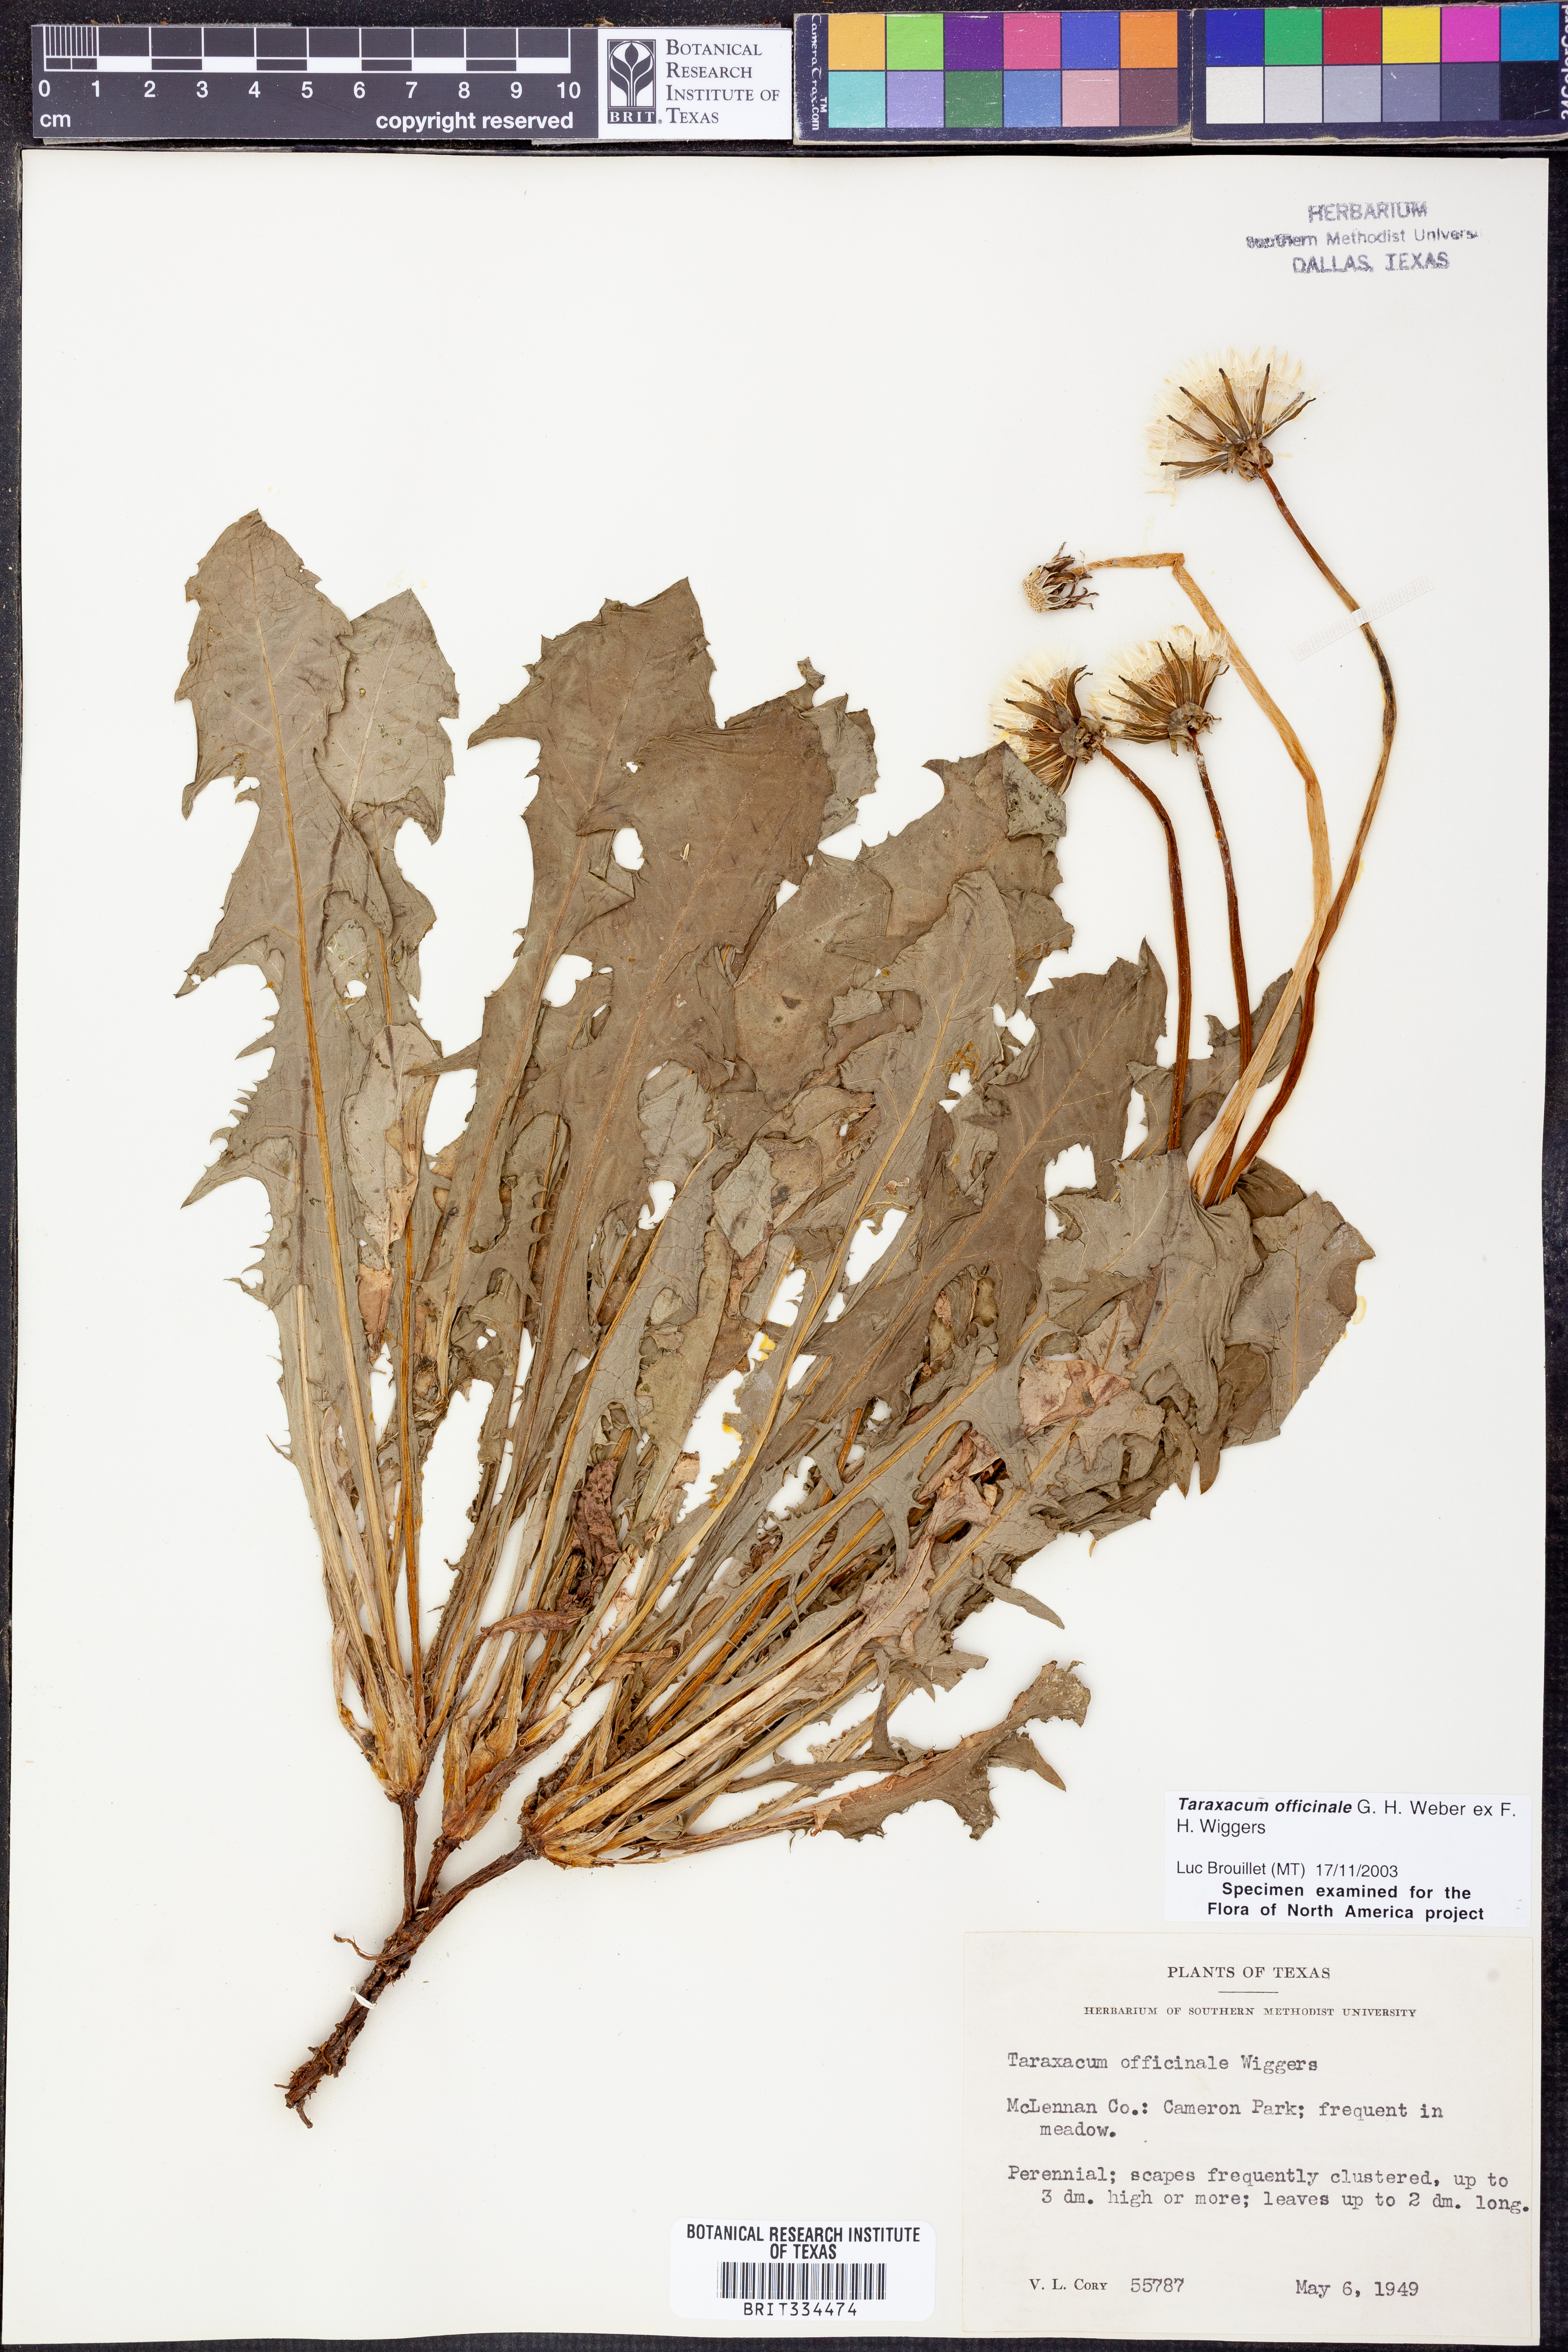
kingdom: Plantae
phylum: Tracheophyta
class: Magnoliopsida
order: Asterales
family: Asteraceae
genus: Taraxacum
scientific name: Taraxacum officinale
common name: Common dandelion
